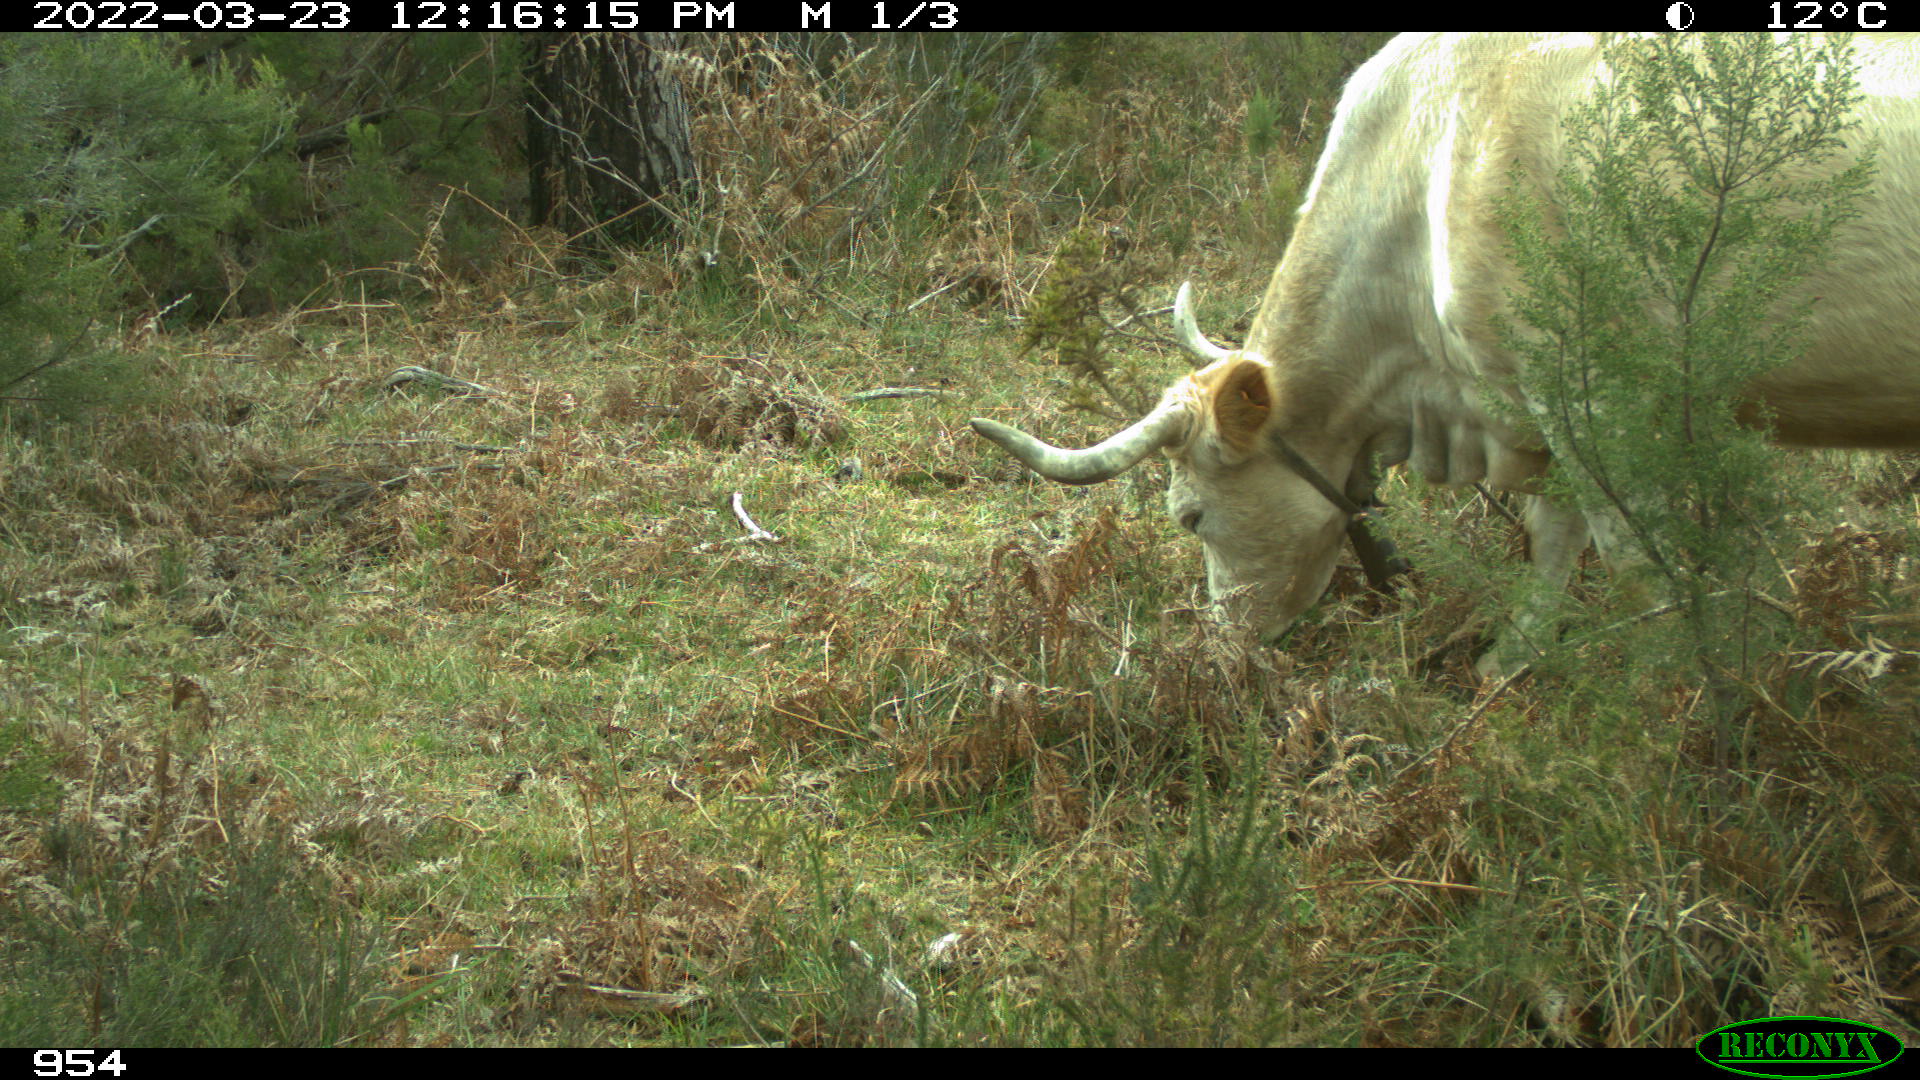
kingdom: Animalia
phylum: Chordata
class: Mammalia
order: Artiodactyla
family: Bovidae
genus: Bos
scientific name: Bos taurus
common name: Domesticated cattle
